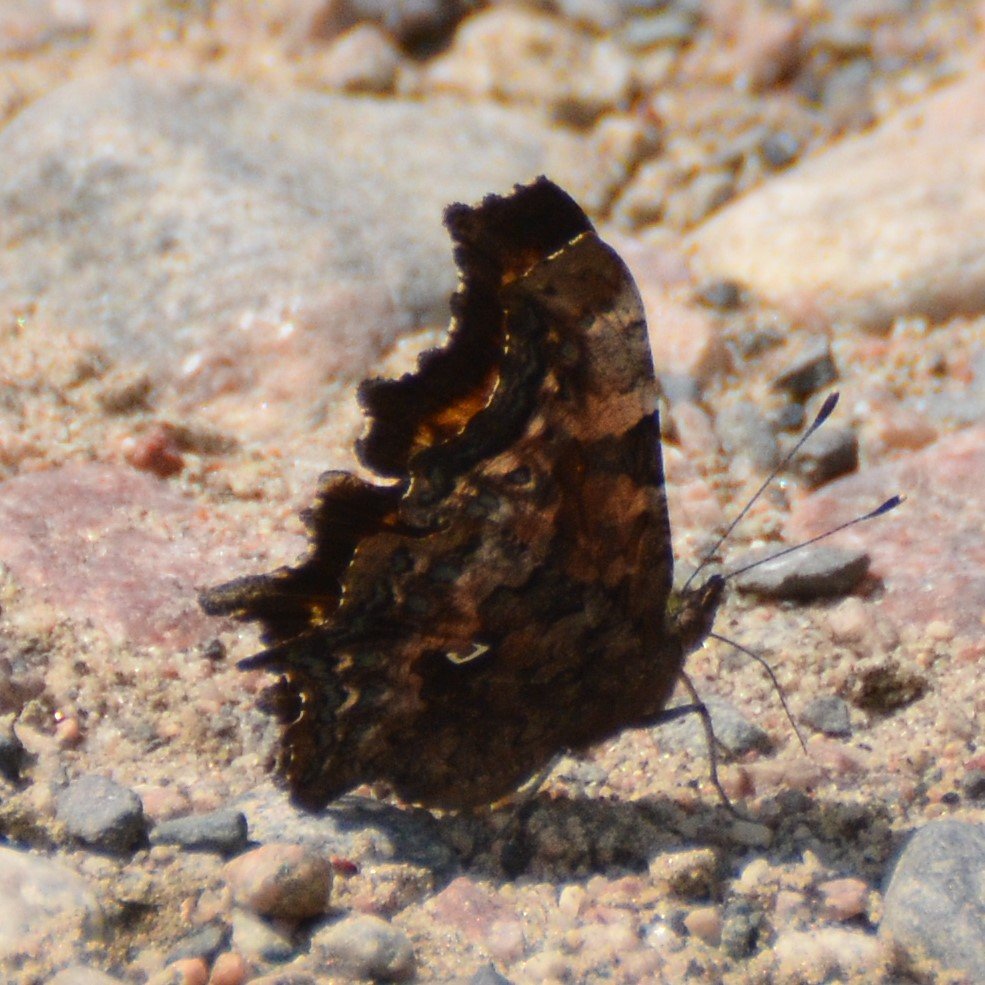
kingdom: Animalia
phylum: Arthropoda
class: Insecta
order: Lepidoptera
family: Nymphalidae
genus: Polygonia
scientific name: Polygonia faunus
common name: Green Comma
